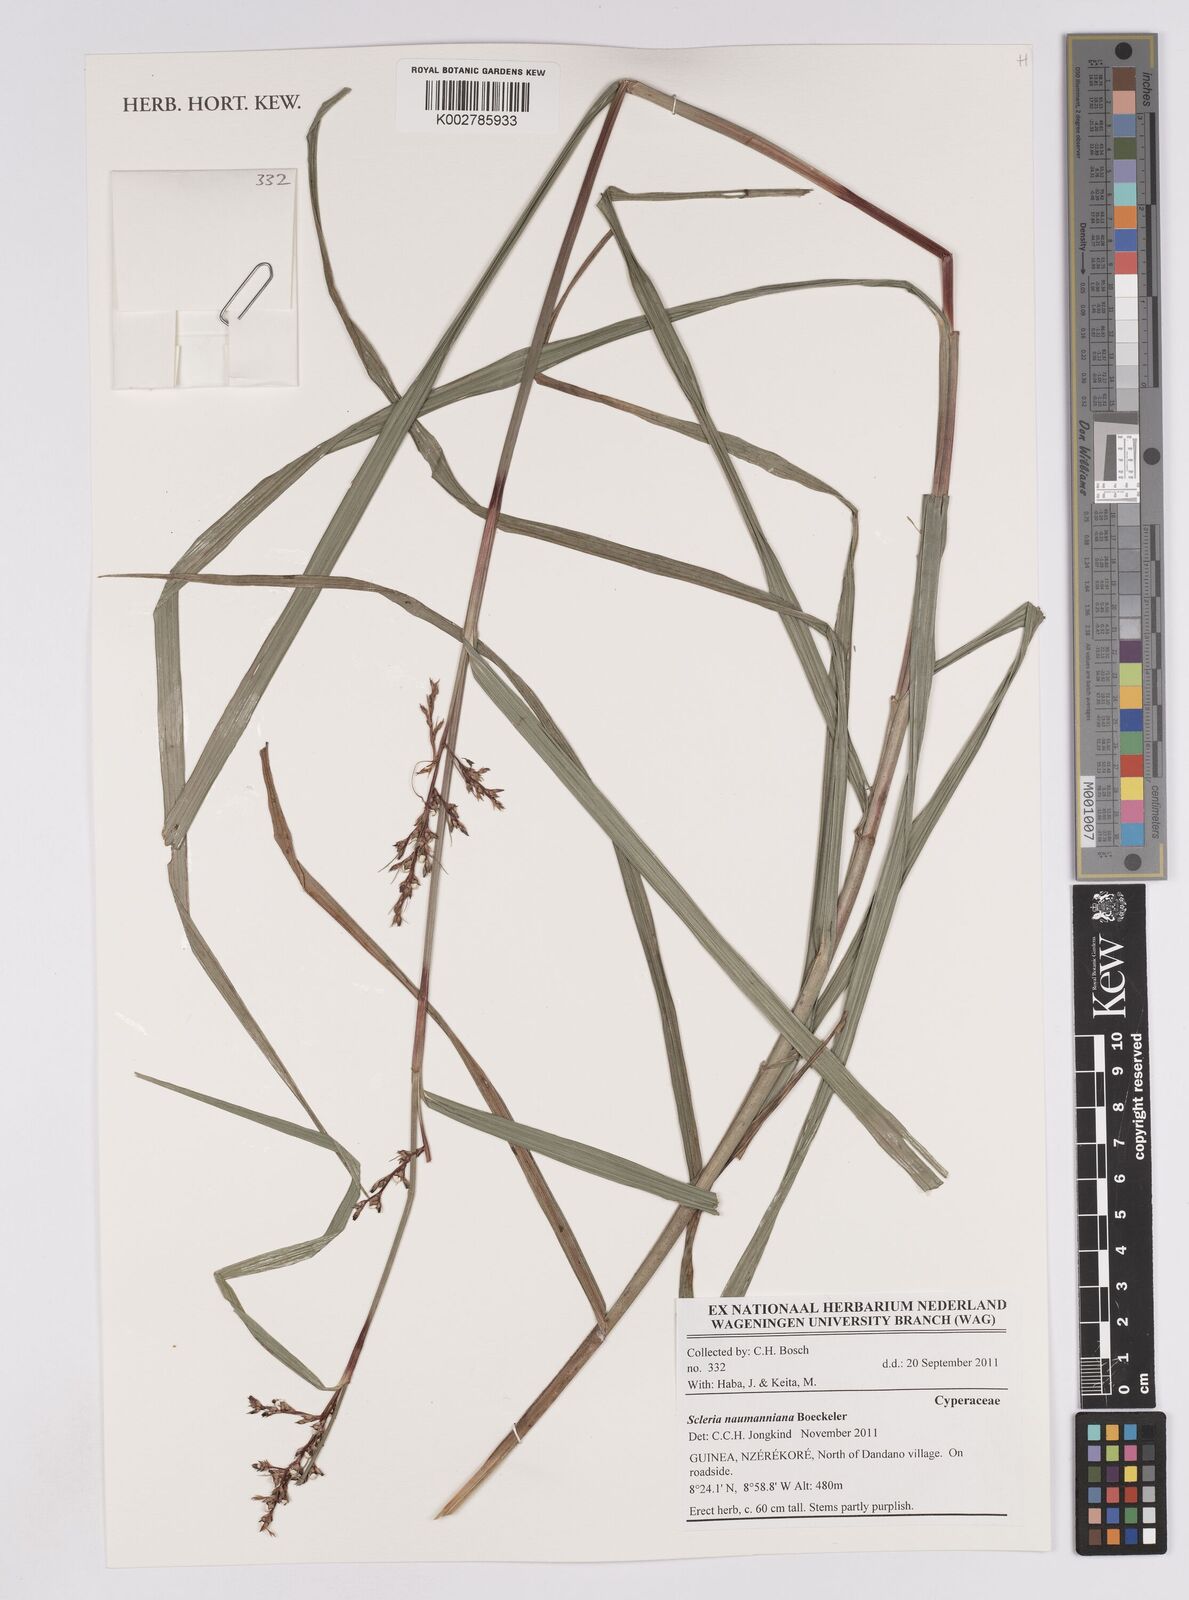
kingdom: Plantae
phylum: Tracheophyta
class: Liliopsida
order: Poales
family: Cyperaceae
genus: Scleria
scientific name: Scleria naumanniana
